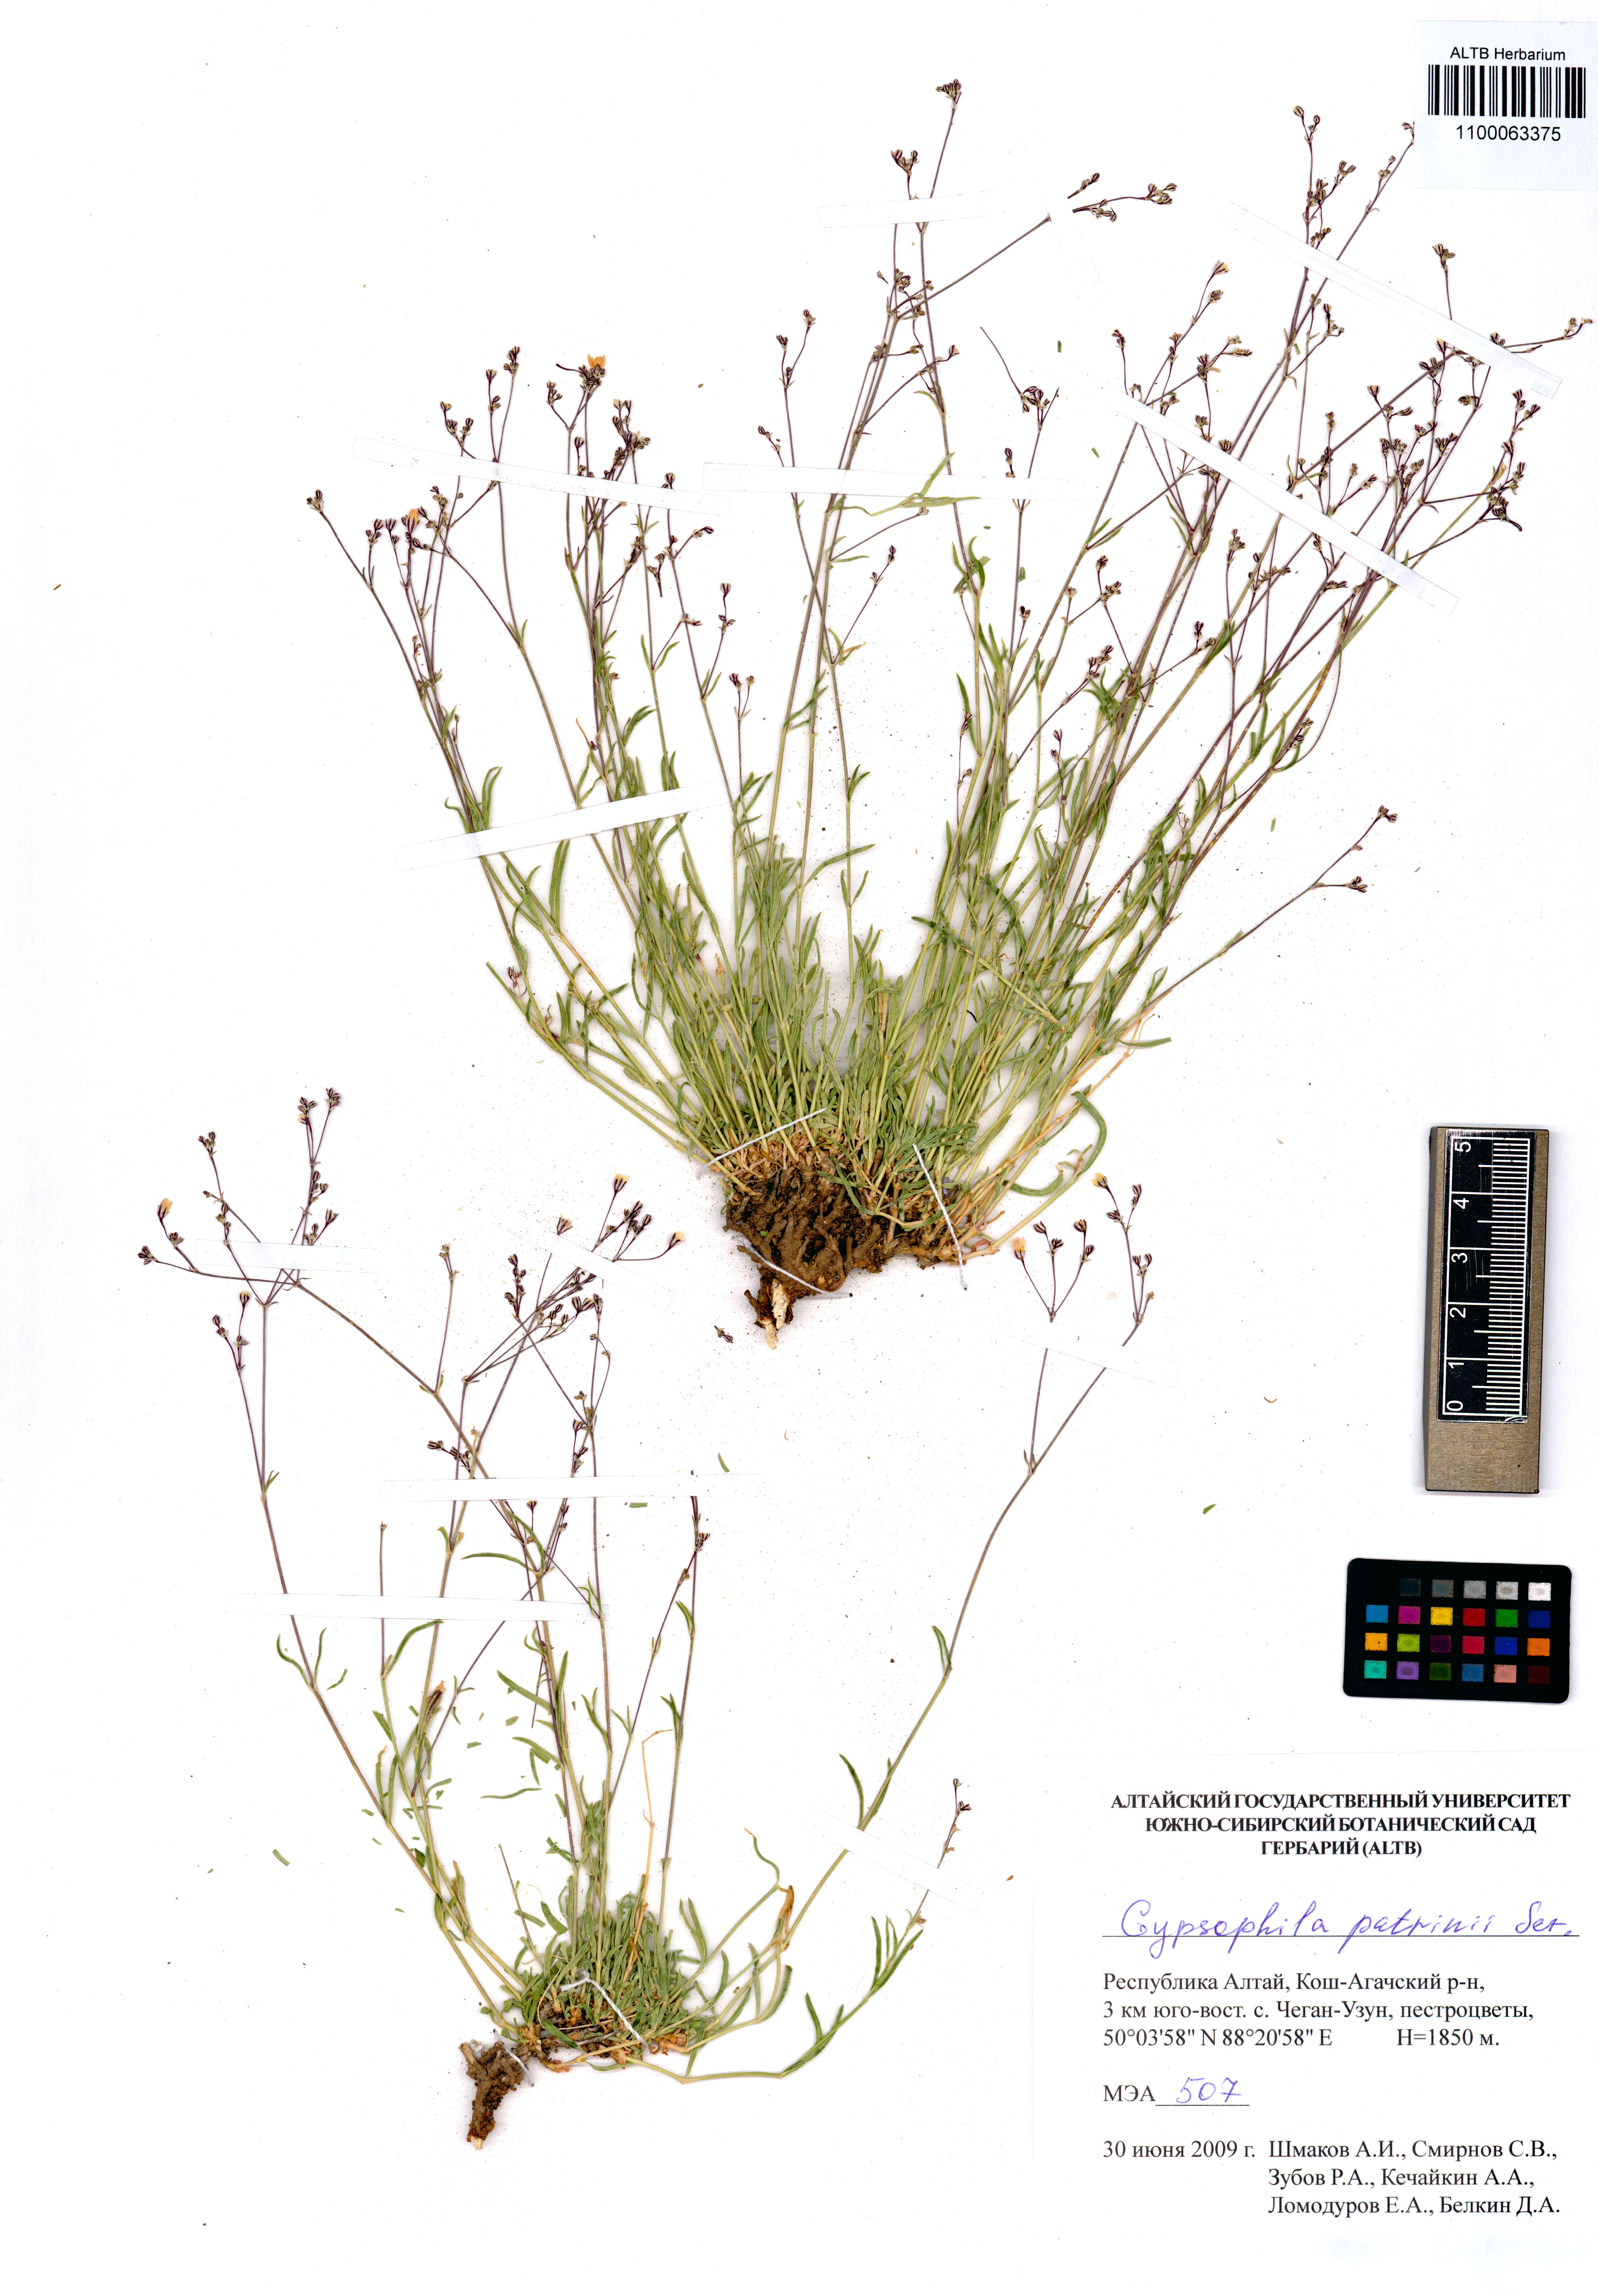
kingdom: Plantae
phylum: Tracheophyta
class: Magnoliopsida
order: Caryophyllales
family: Caryophyllaceae
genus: Gypsophila
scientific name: Gypsophila patrinii
